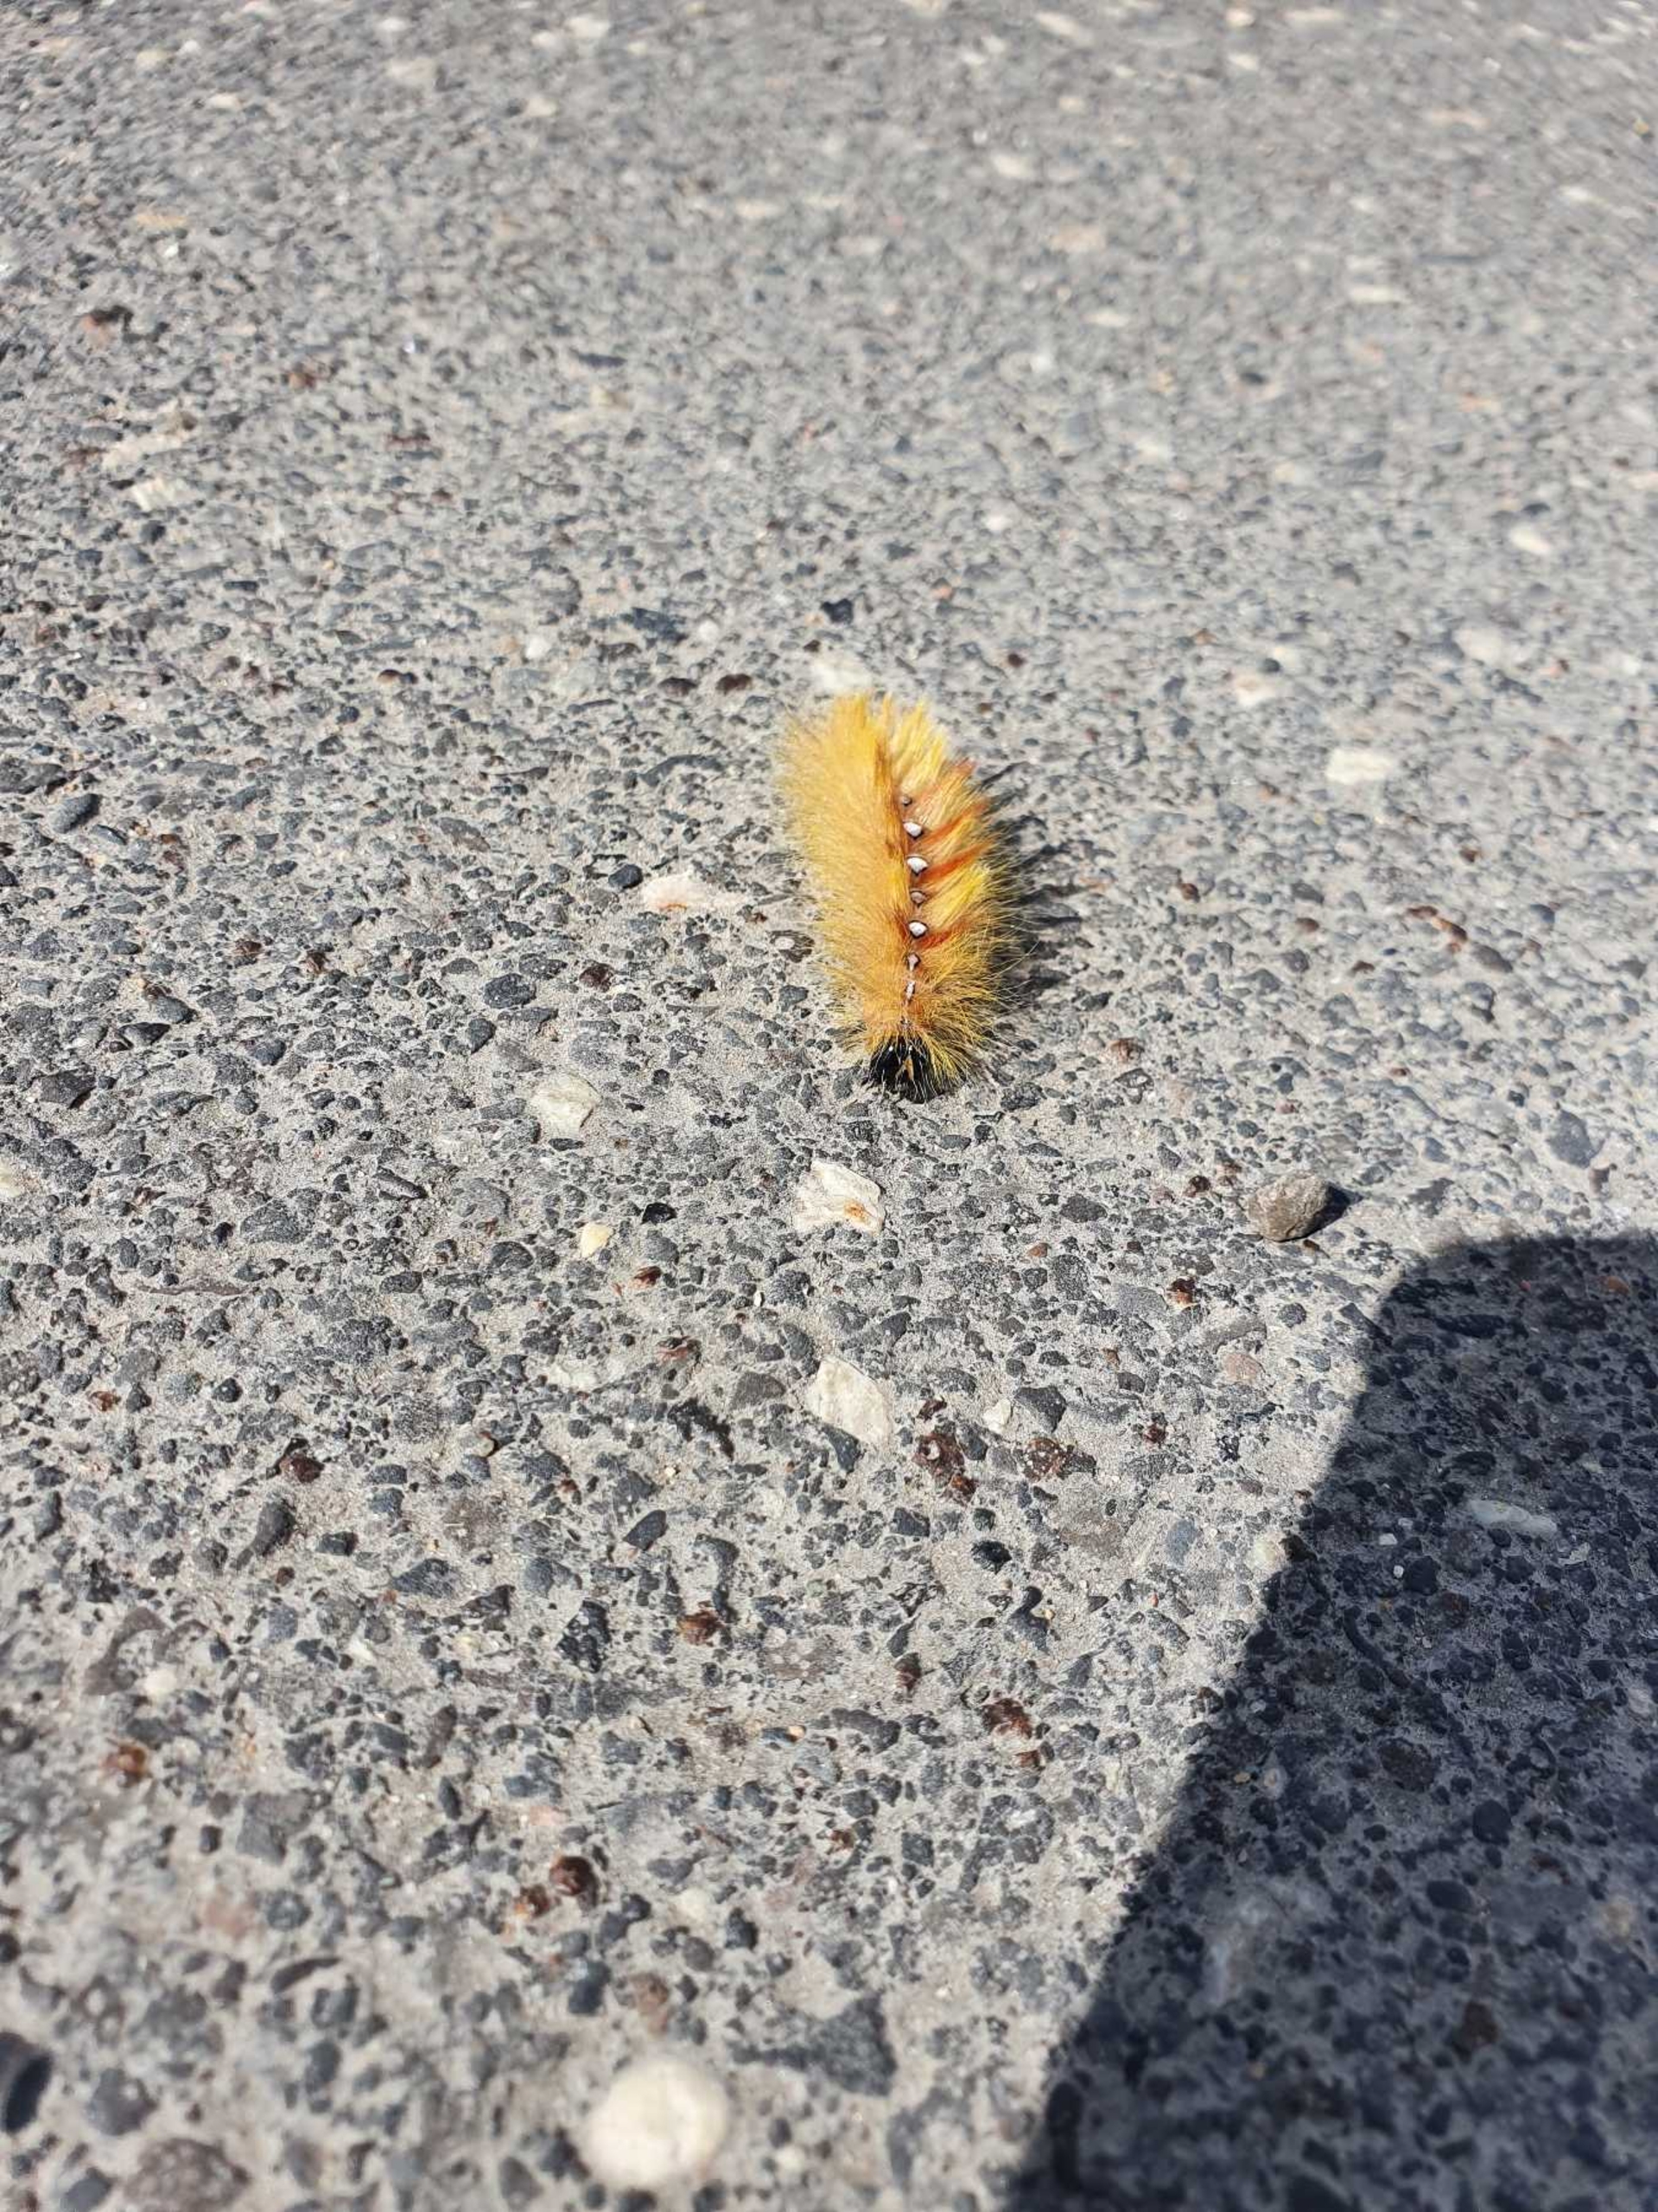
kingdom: Animalia
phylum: Arthropoda
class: Insecta
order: Lepidoptera
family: Noctuidae
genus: Acronicta
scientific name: Acronicta aceris
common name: Ahornugle
